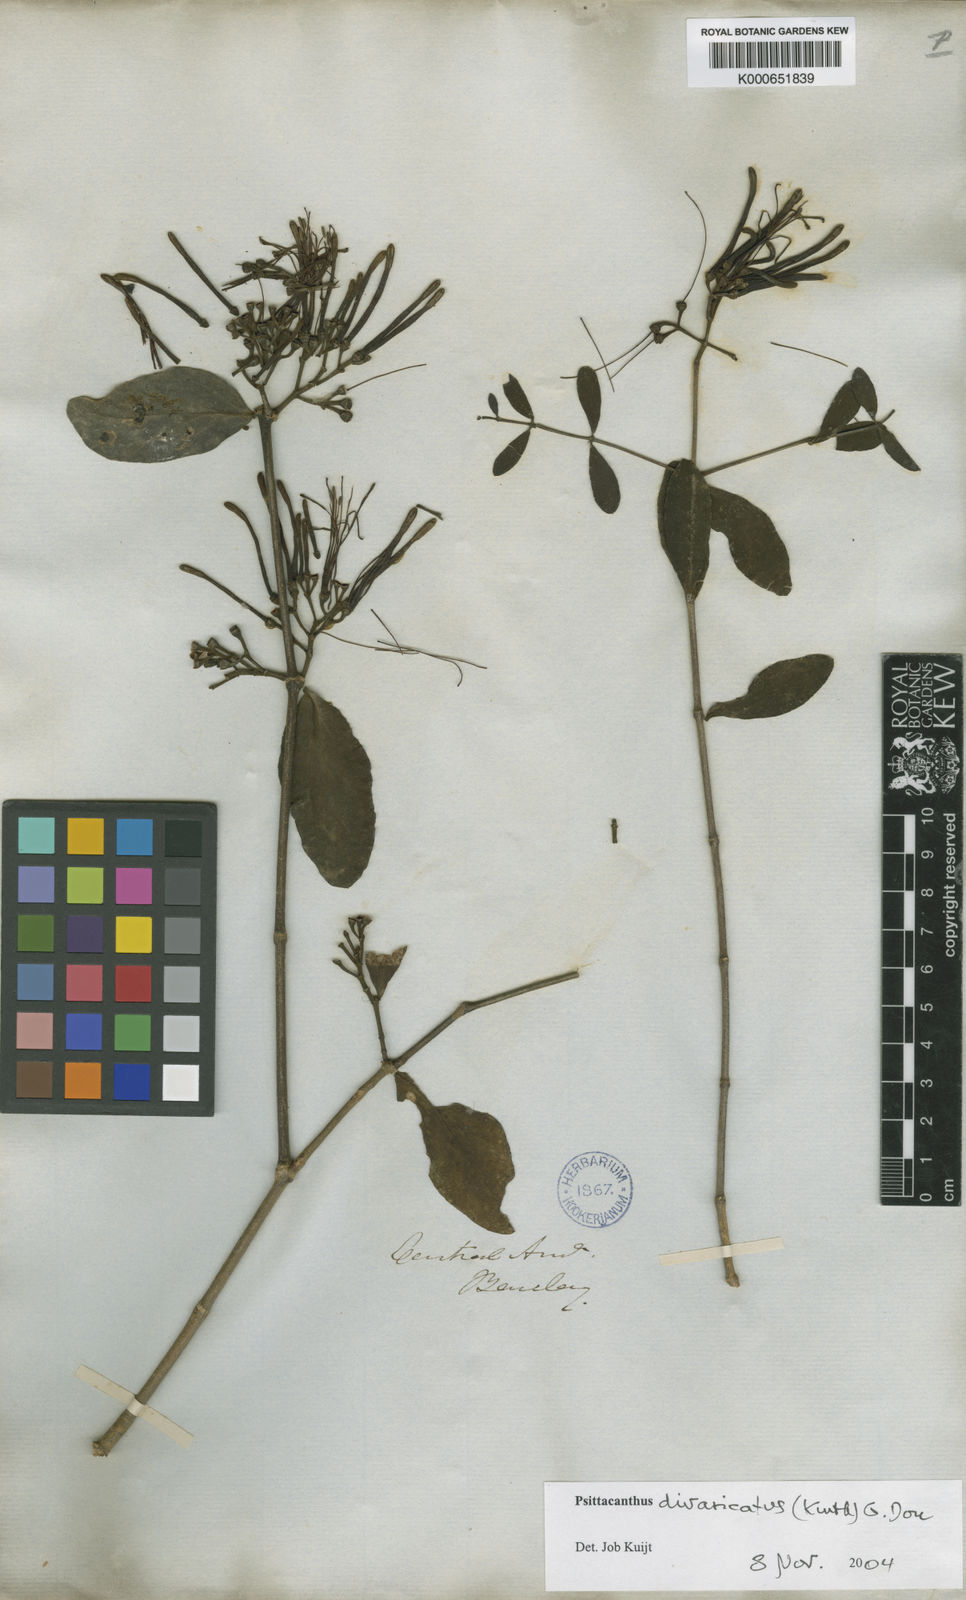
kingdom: Plantae
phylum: Tracheophyta
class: Magnoliopsida
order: Santalales
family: Loranthaceae
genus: Psittacanthus
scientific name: Psittacanthus divaricatus
